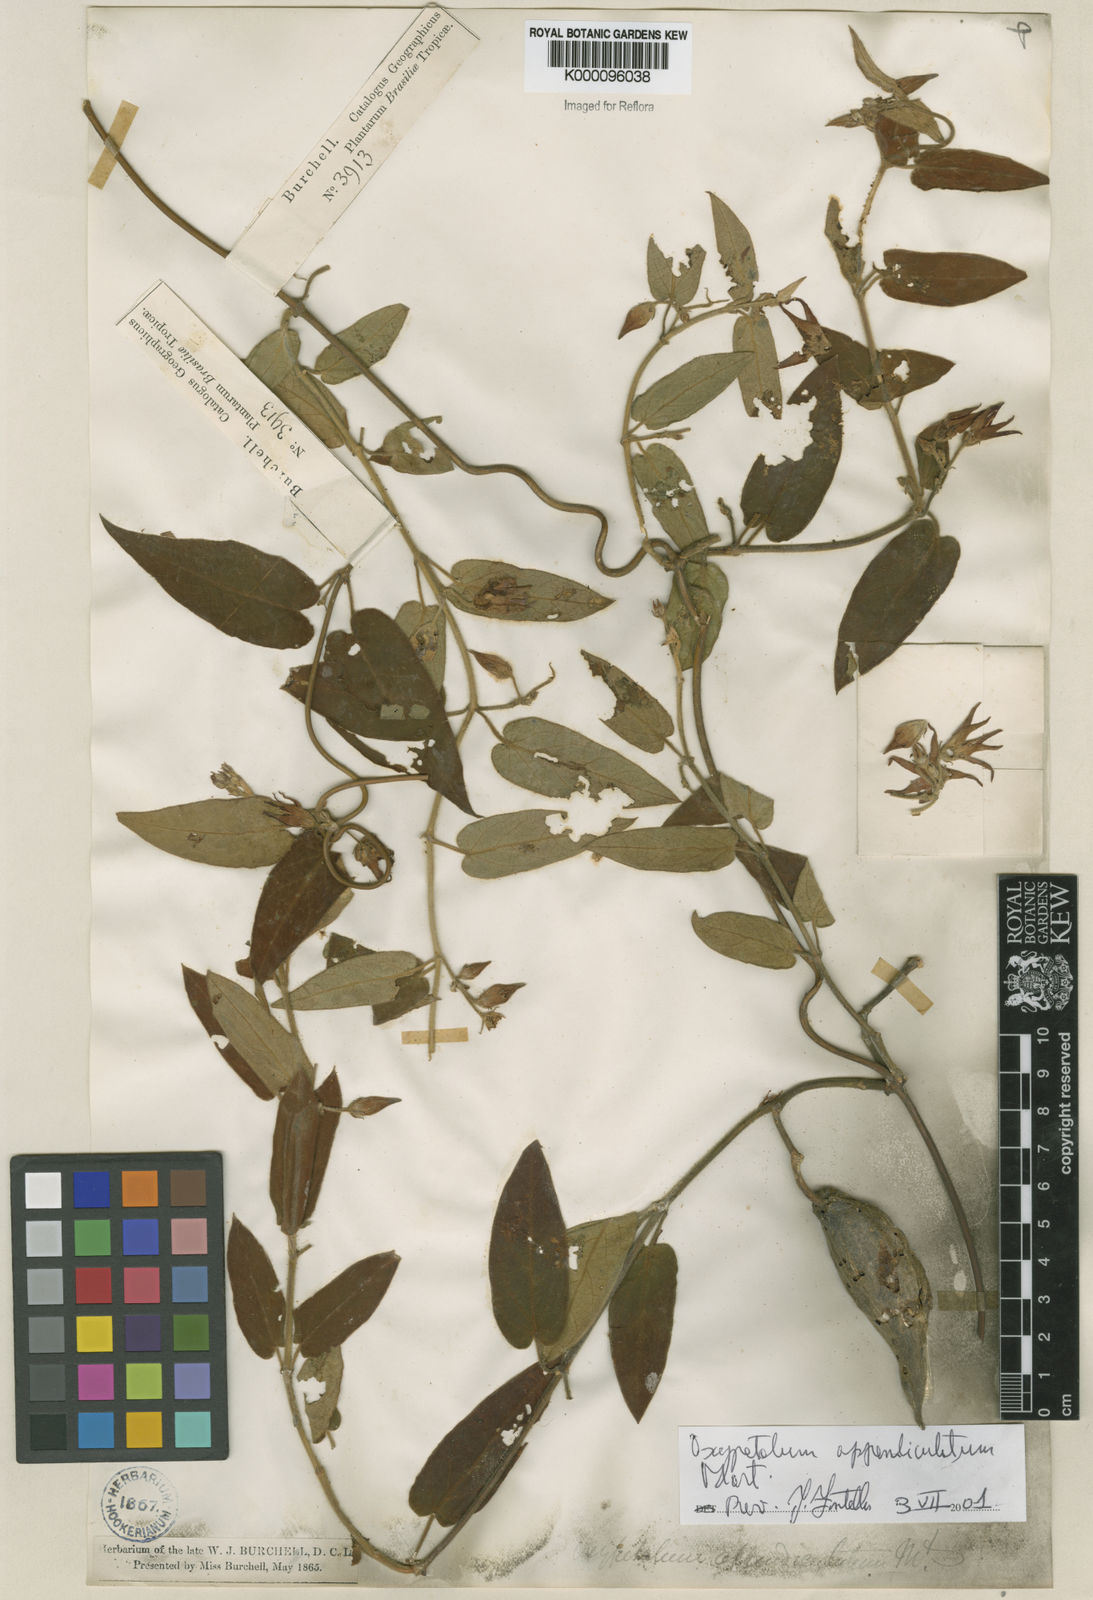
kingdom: Plantae
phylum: Tracheophyta
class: Magnoliopsida
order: Gentianales
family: Apocynaceae
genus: Oxypetalum
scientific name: Oxypetalum appendiculatum
